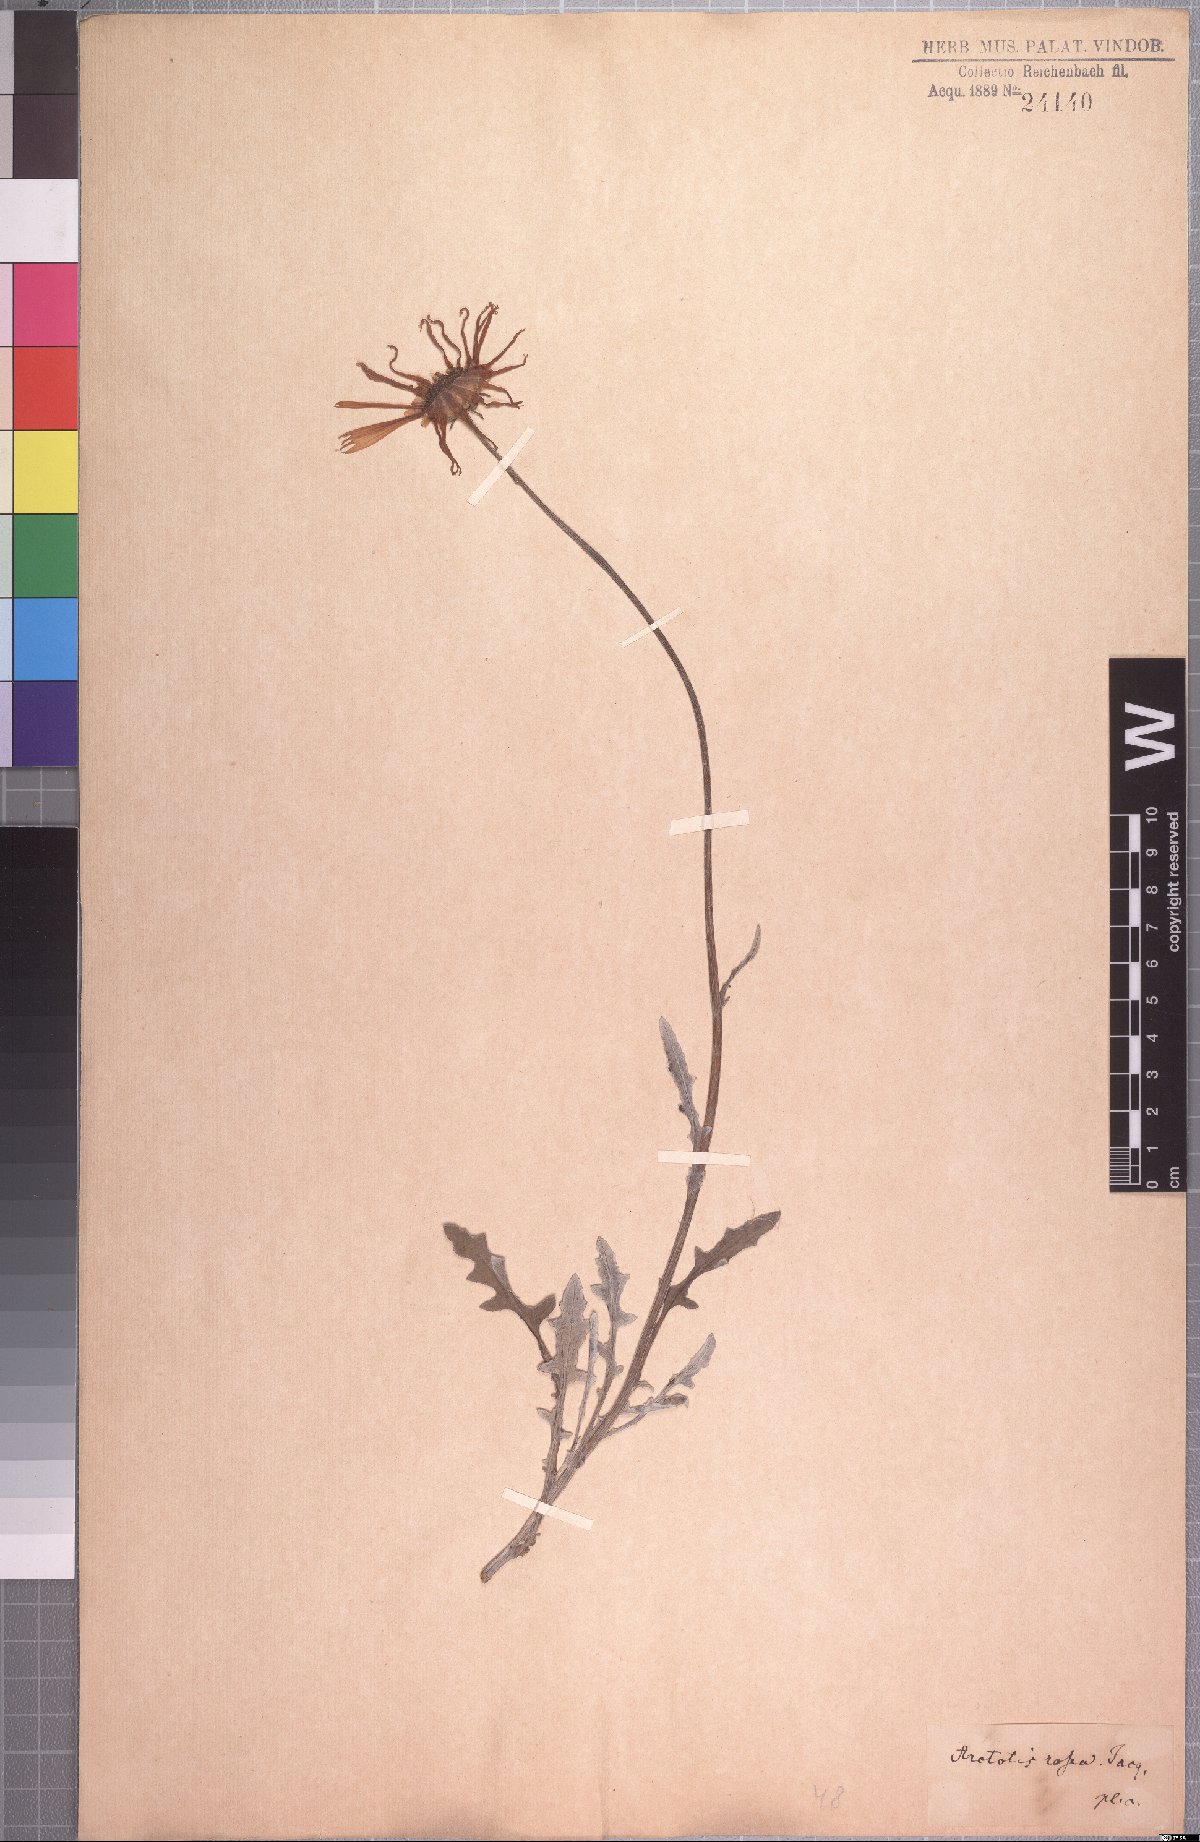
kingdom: Plantae
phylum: Tracheophyta
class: Magnoliopsida
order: Asterales
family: Asteraceae
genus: Arctotis
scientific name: Arctotis rosea
